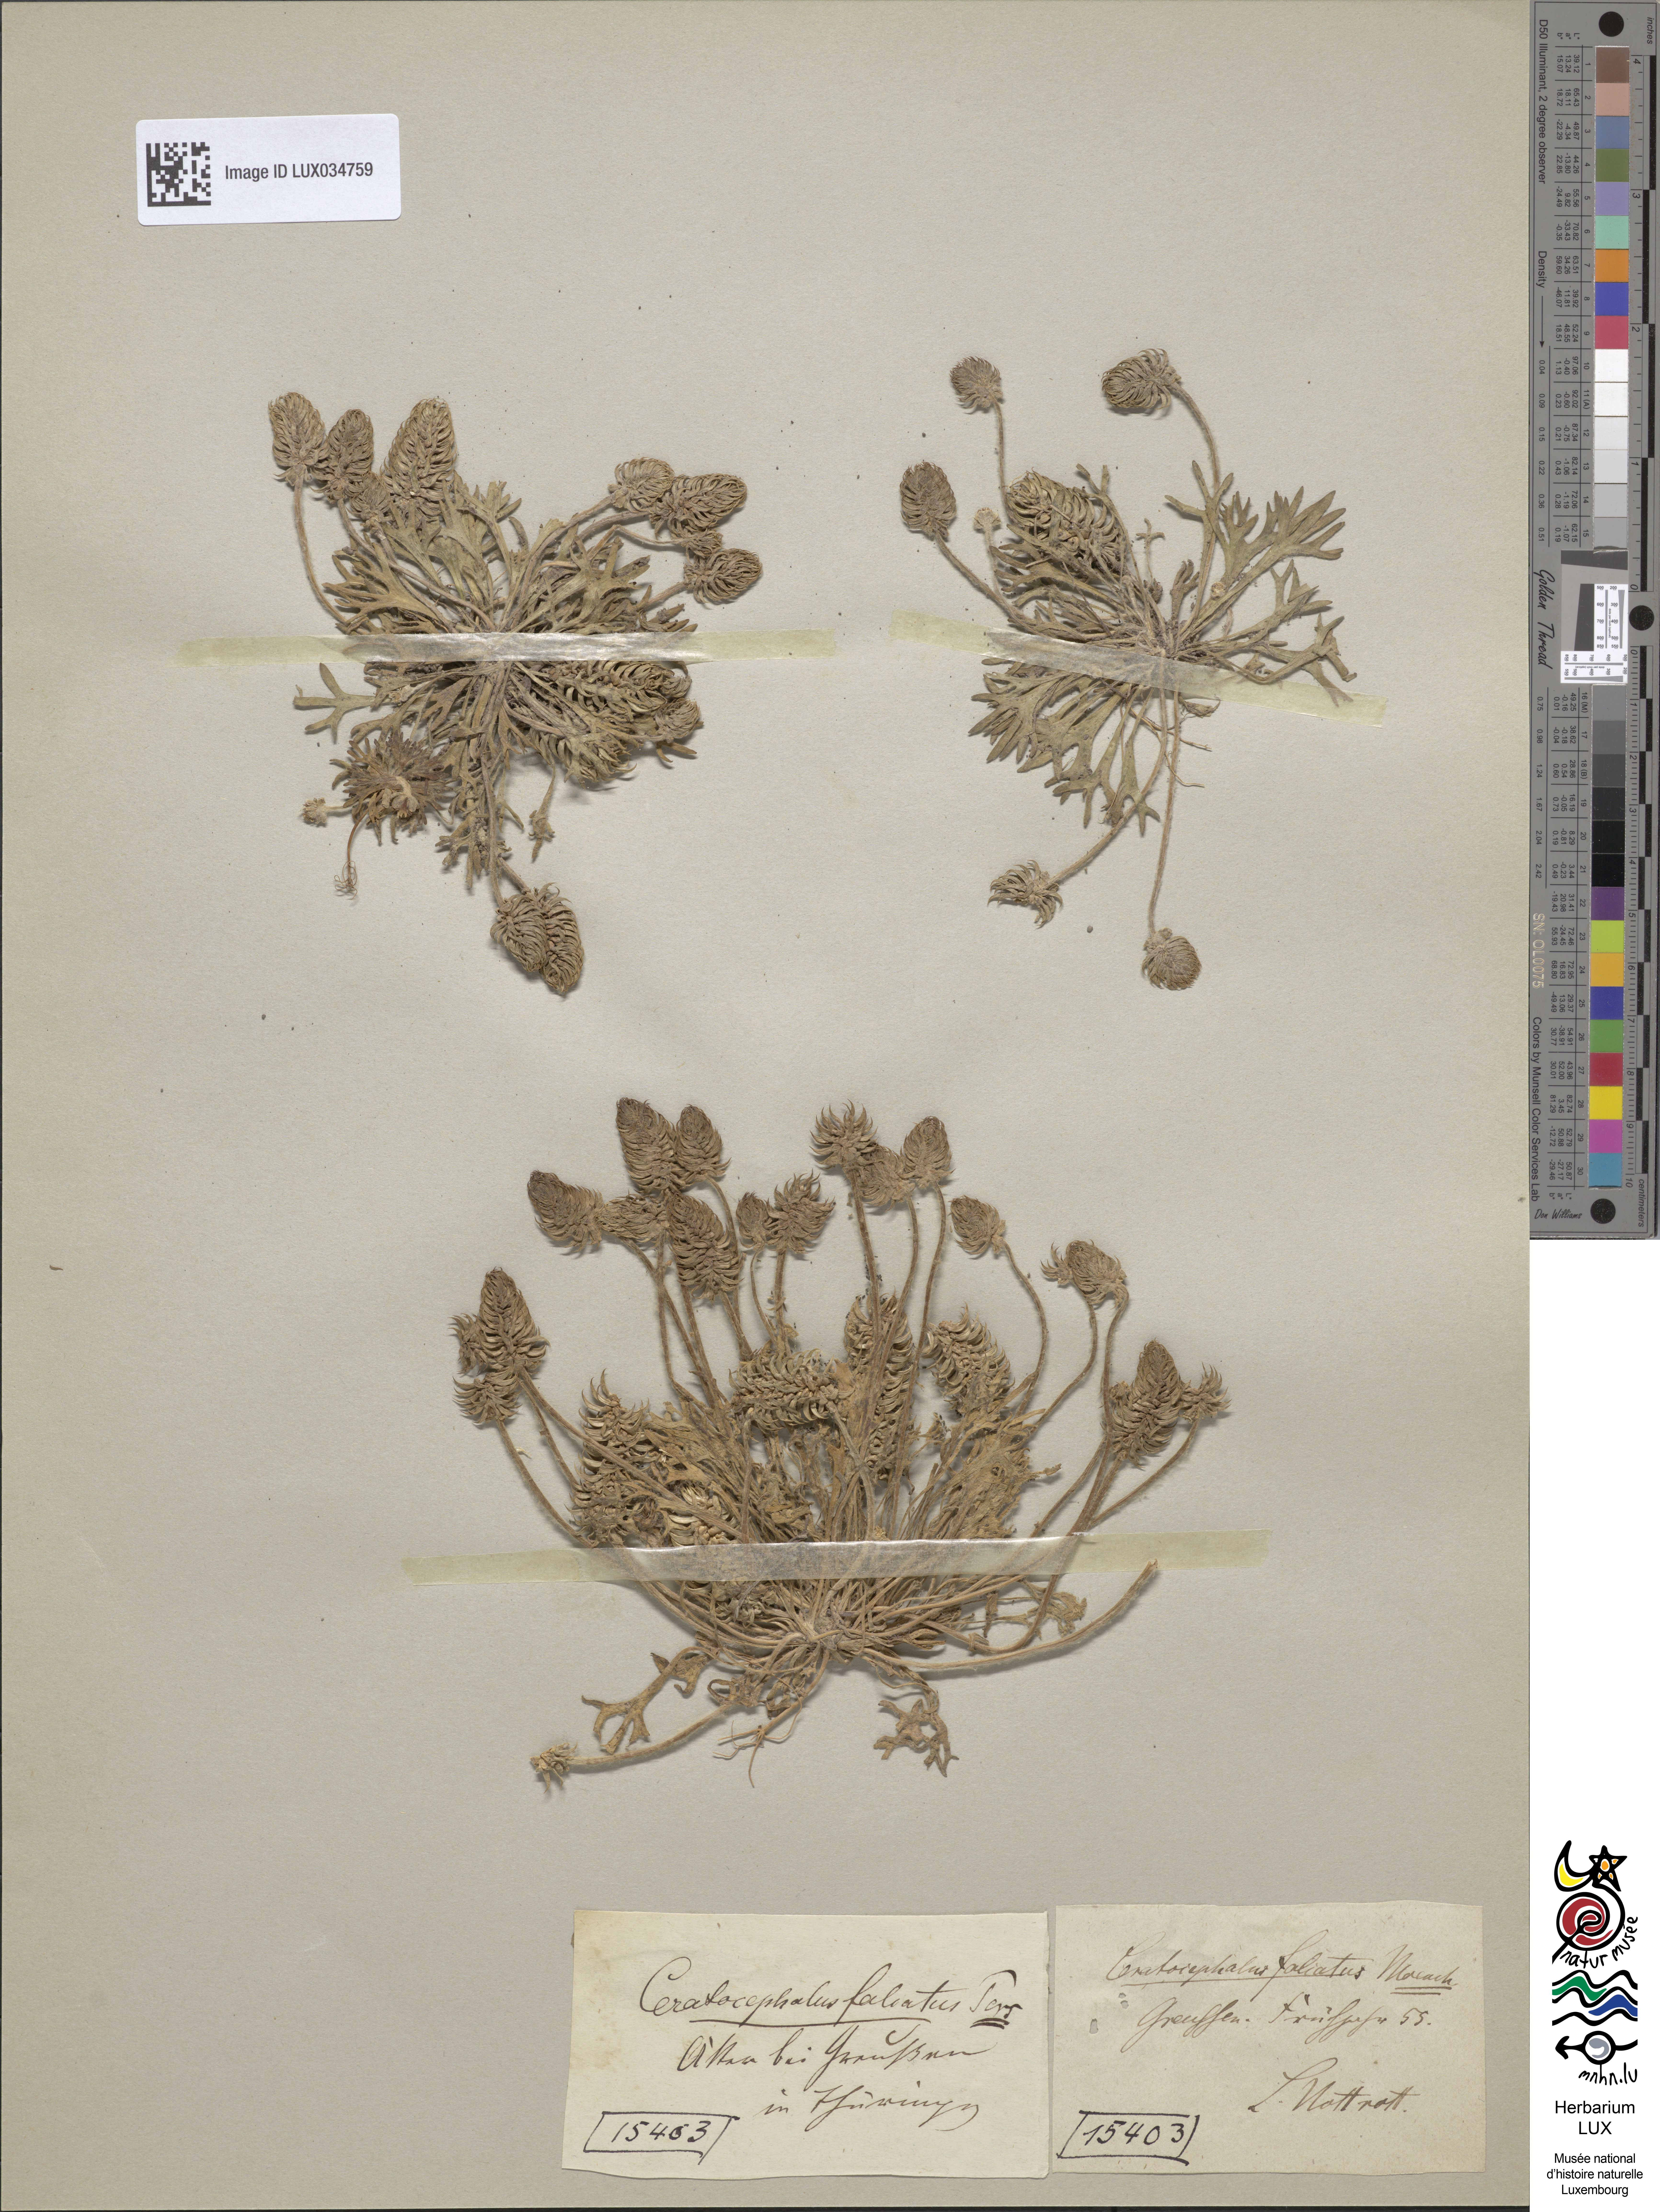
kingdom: Plantae
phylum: Tracheophyta
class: Magnoliopsida
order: Ranunculales
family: Ranunculaceae
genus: Ceratocephala
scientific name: Ceratocephala falcata
